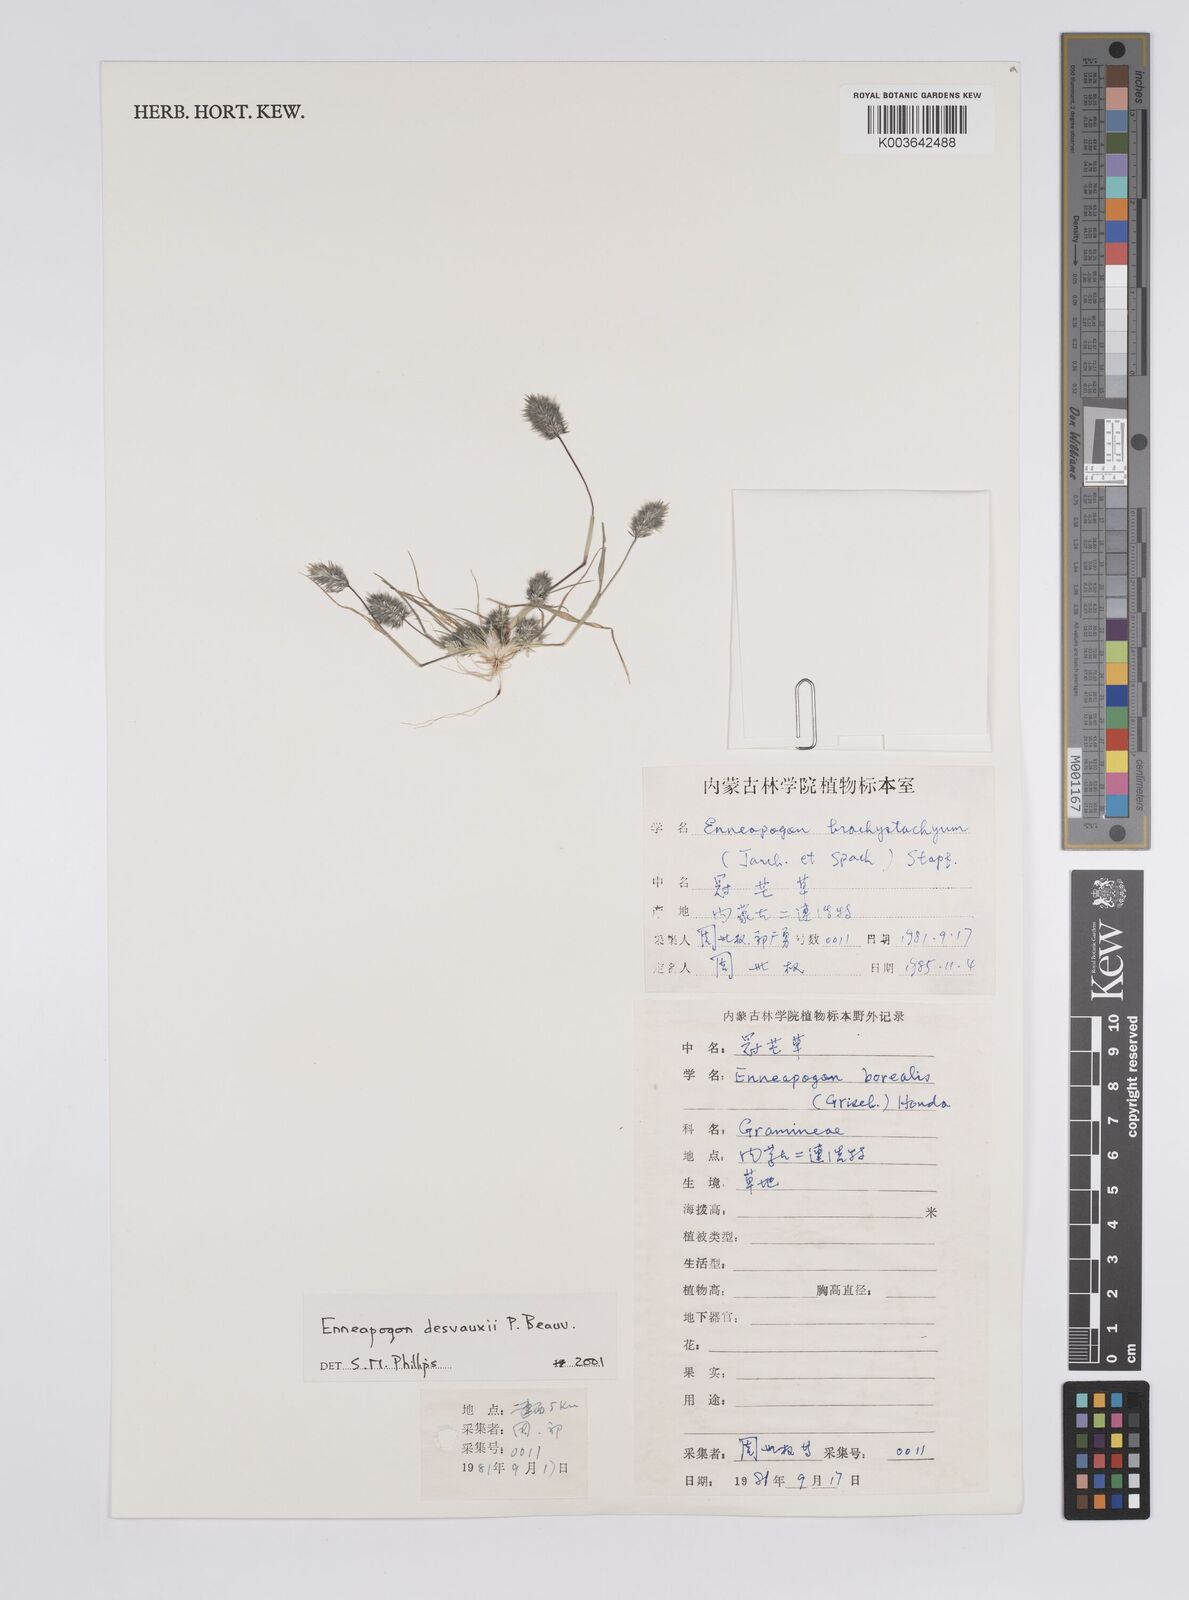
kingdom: Plantae
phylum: Tracheophyta
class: Liliopsida
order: Poales
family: Poaceae
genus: Enneapogon
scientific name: Enneapogon desvauxii
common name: Feather pappus grass
